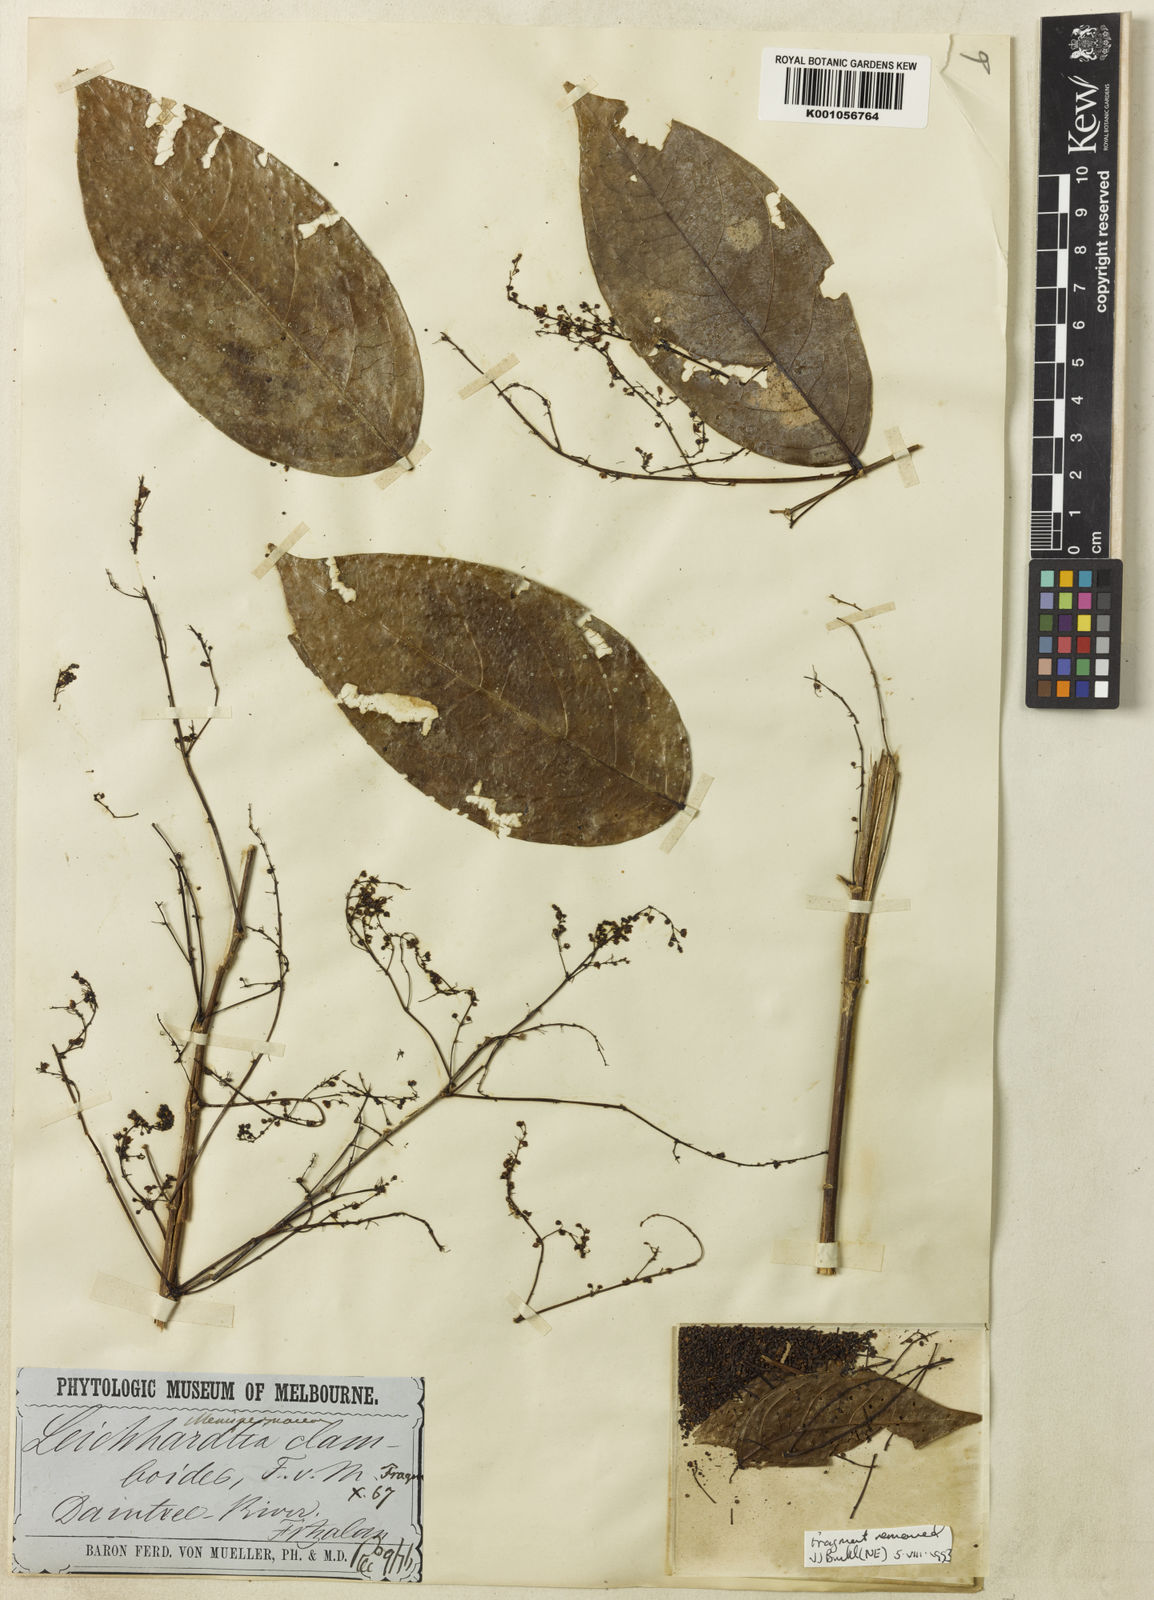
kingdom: Plantae
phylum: Tracheophyta
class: Magnoliopsida
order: Malpighiales
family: Phyllanthaceae
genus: Phyllanthus
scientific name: Phyllanthus clamboides
